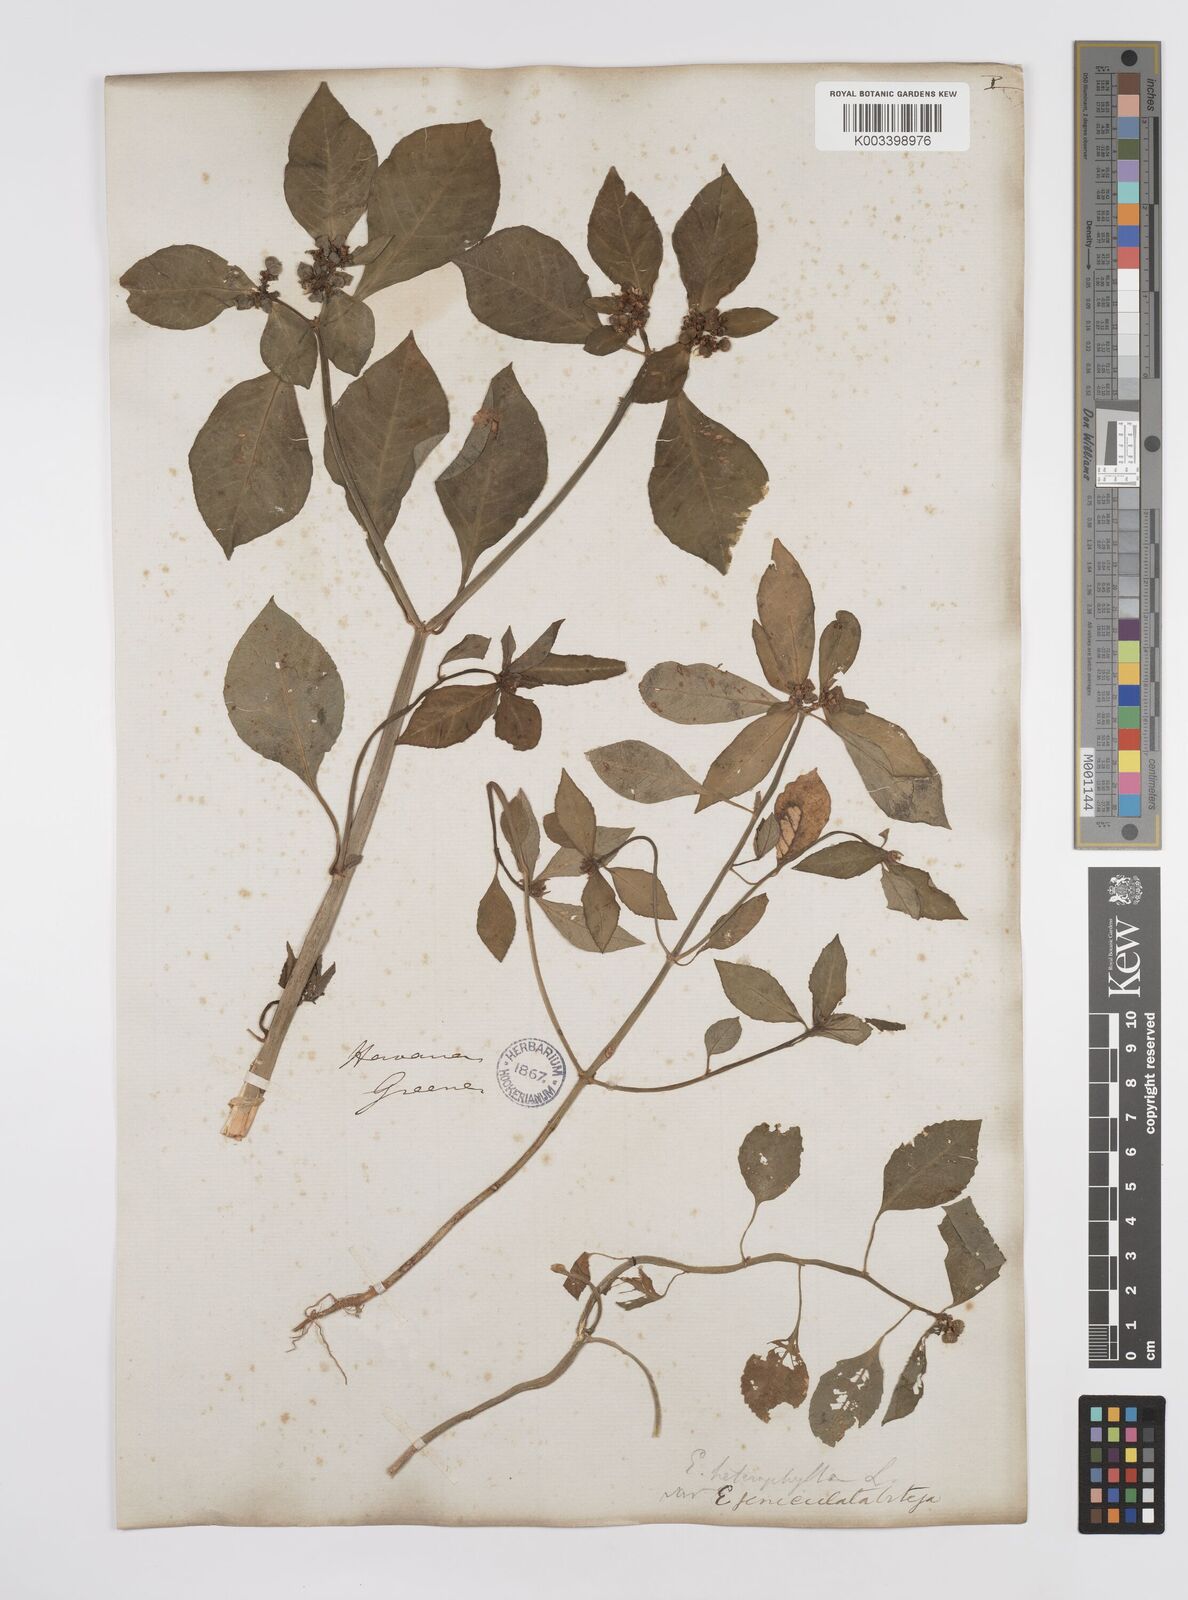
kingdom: Plantae
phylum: Tracheophyta
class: Magnoliopsida
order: Malpighiales
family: Euphorbiaceae
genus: Euphorbia
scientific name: Euphorbia heterophylla
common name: Mexican fireplant
